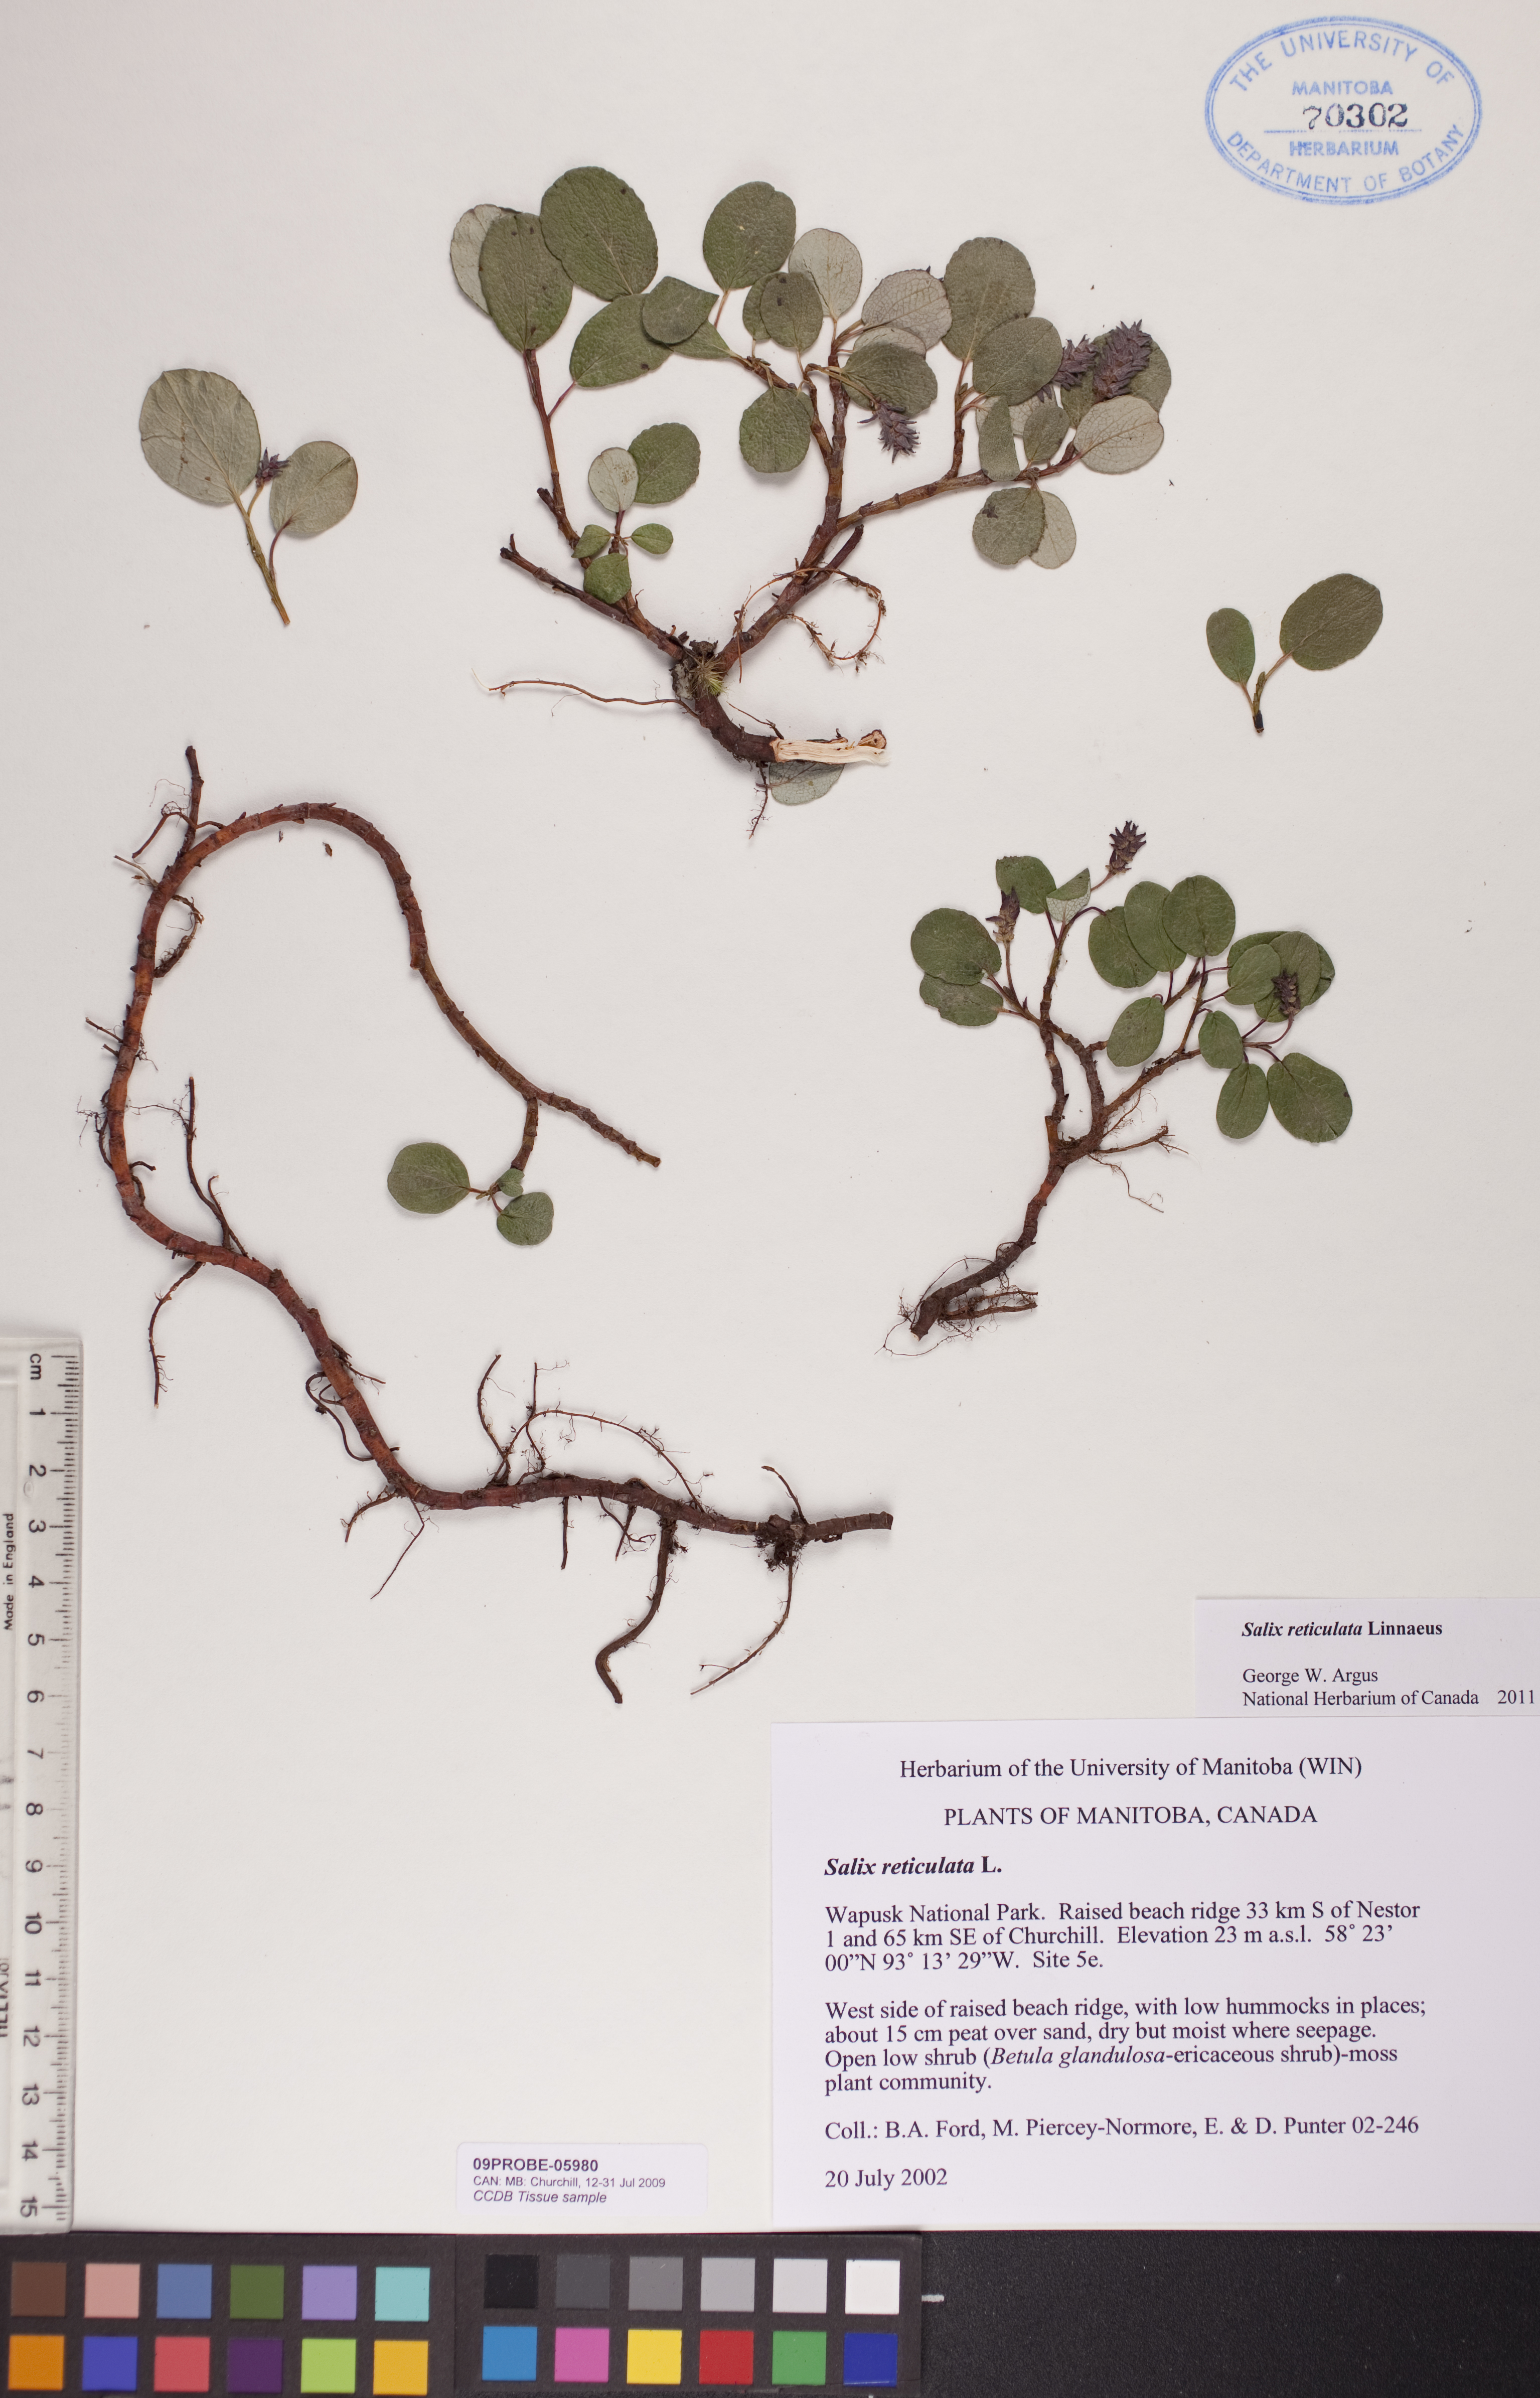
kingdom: Plantae
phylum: Tracheophyta
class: Magnoliopsida
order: Malpighiales
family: Salicaceae
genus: Salix
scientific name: Salix reticulata
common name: Net-leaved willow
